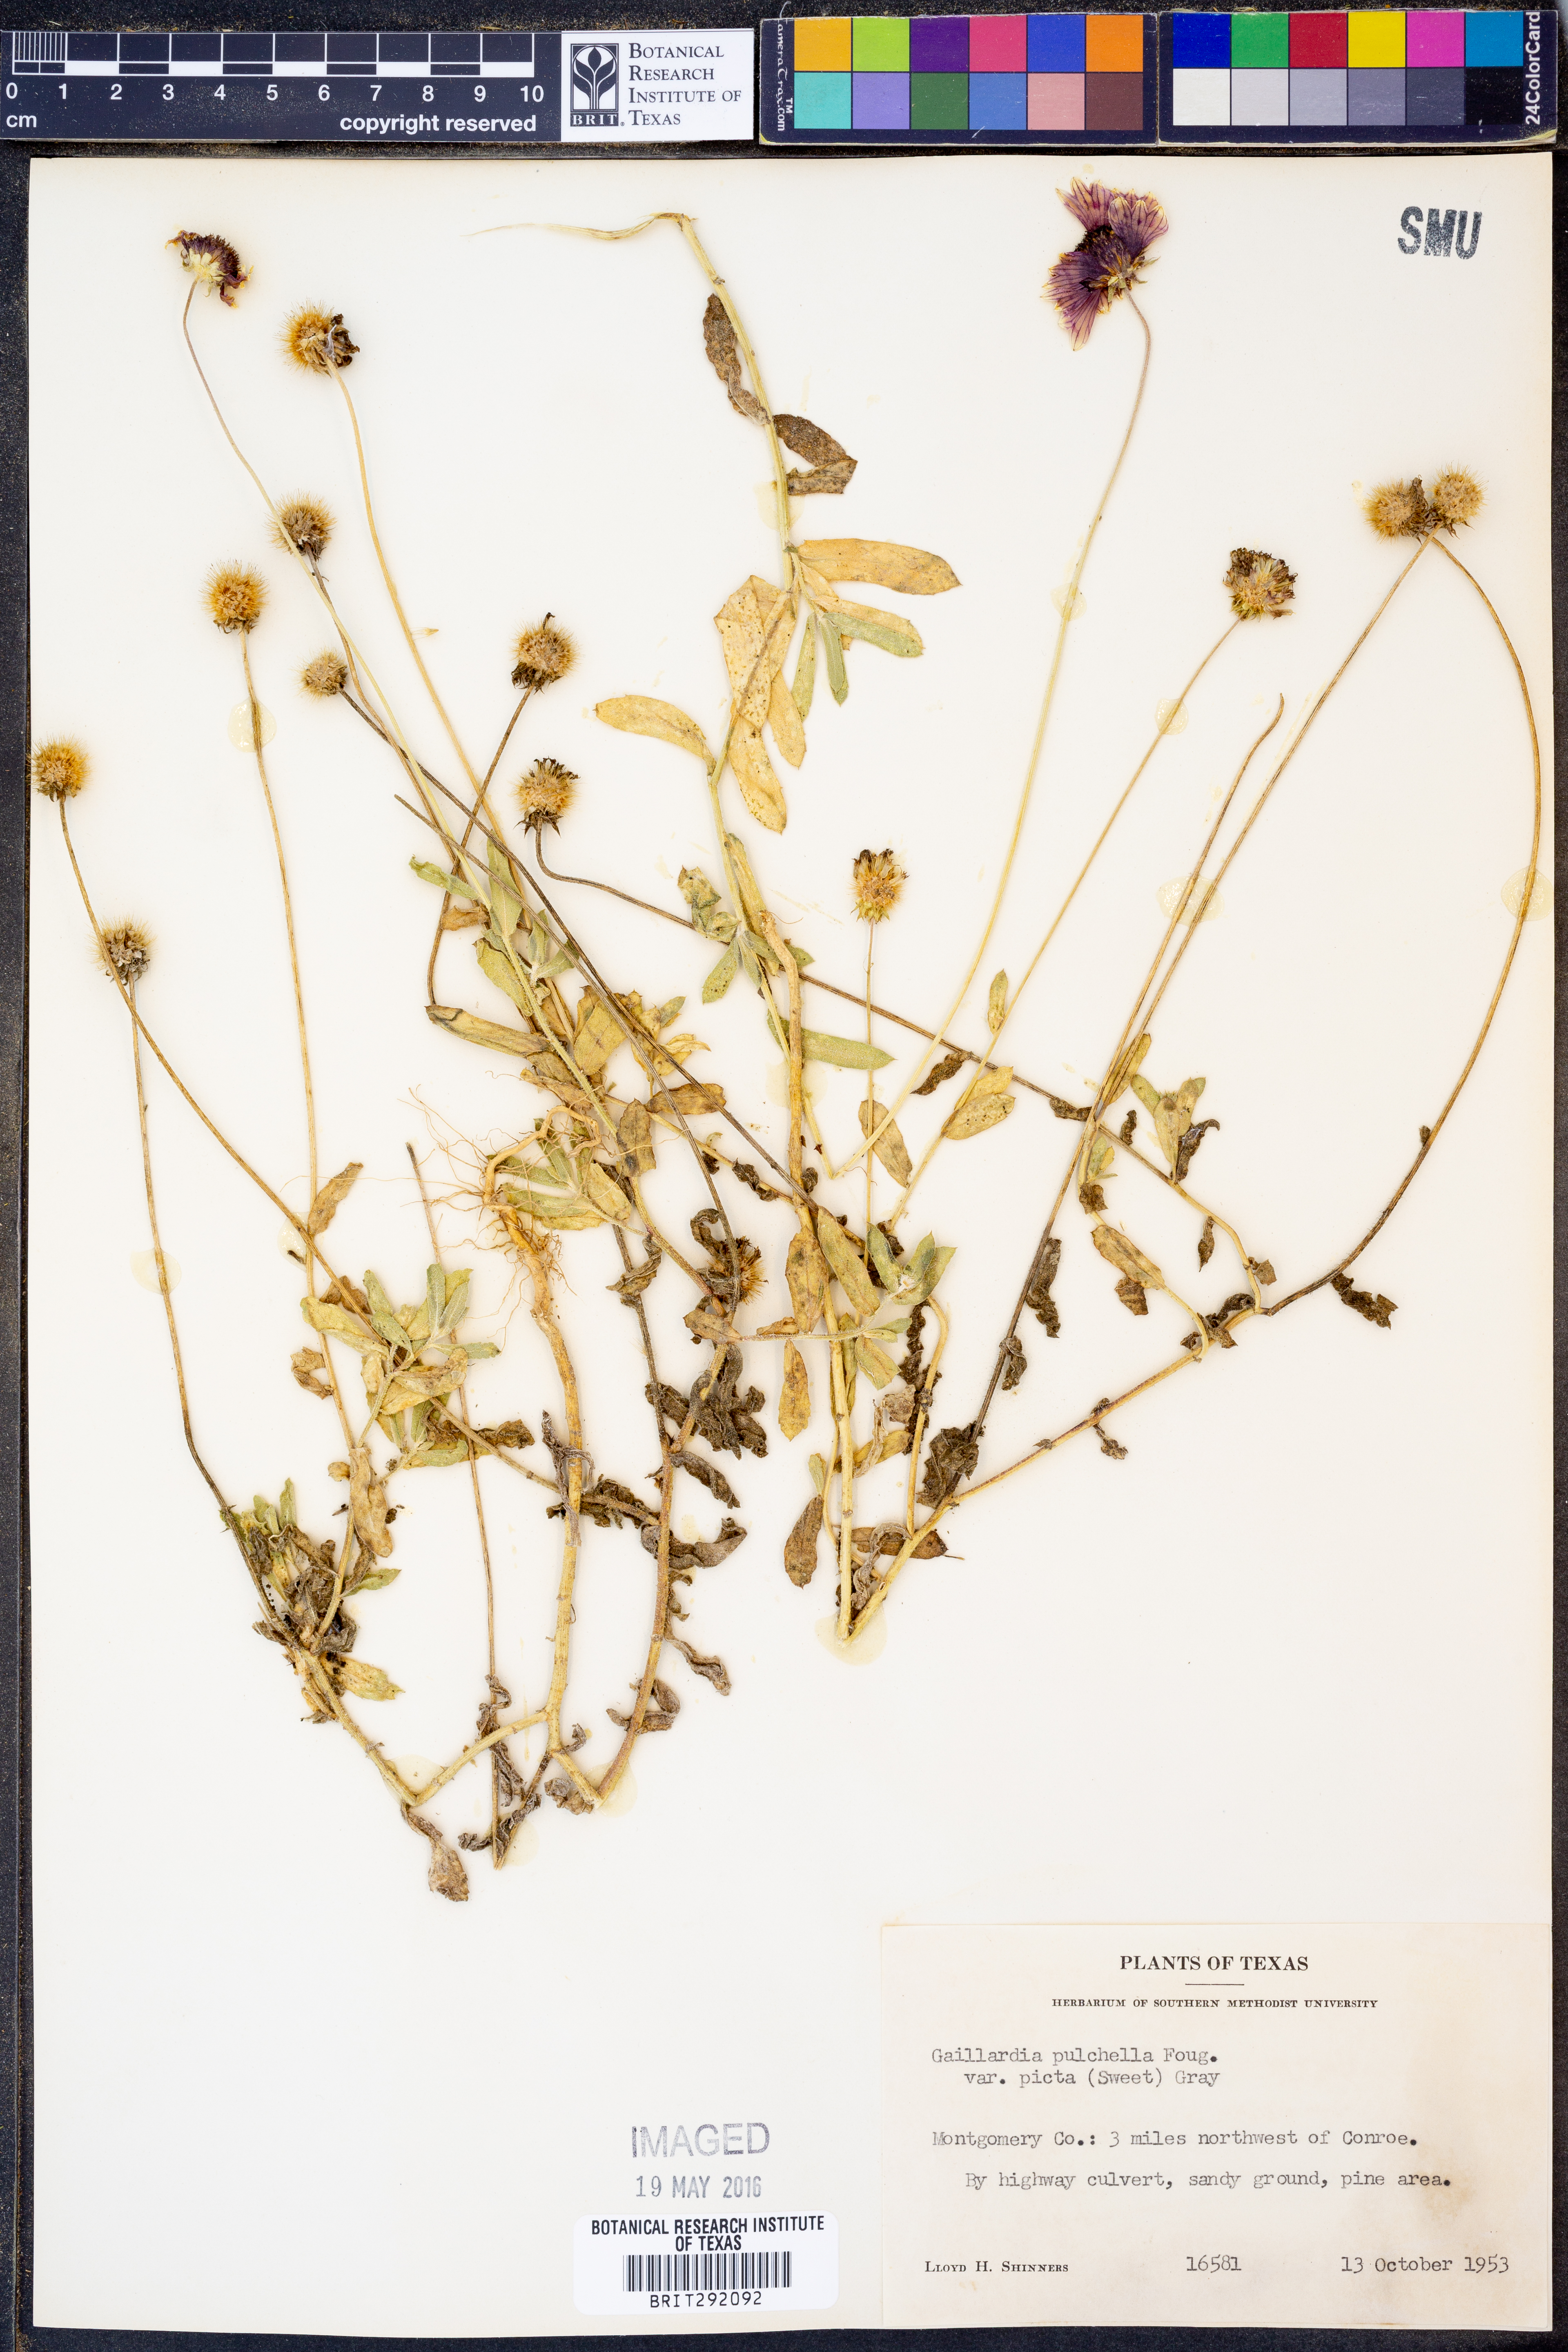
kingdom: Plantae
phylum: Tracheophyta
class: Magnoliopsida
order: Asterales
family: Asteraceae
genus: Gaillardia
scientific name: Gaillardia pulchella
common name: Firewheel
